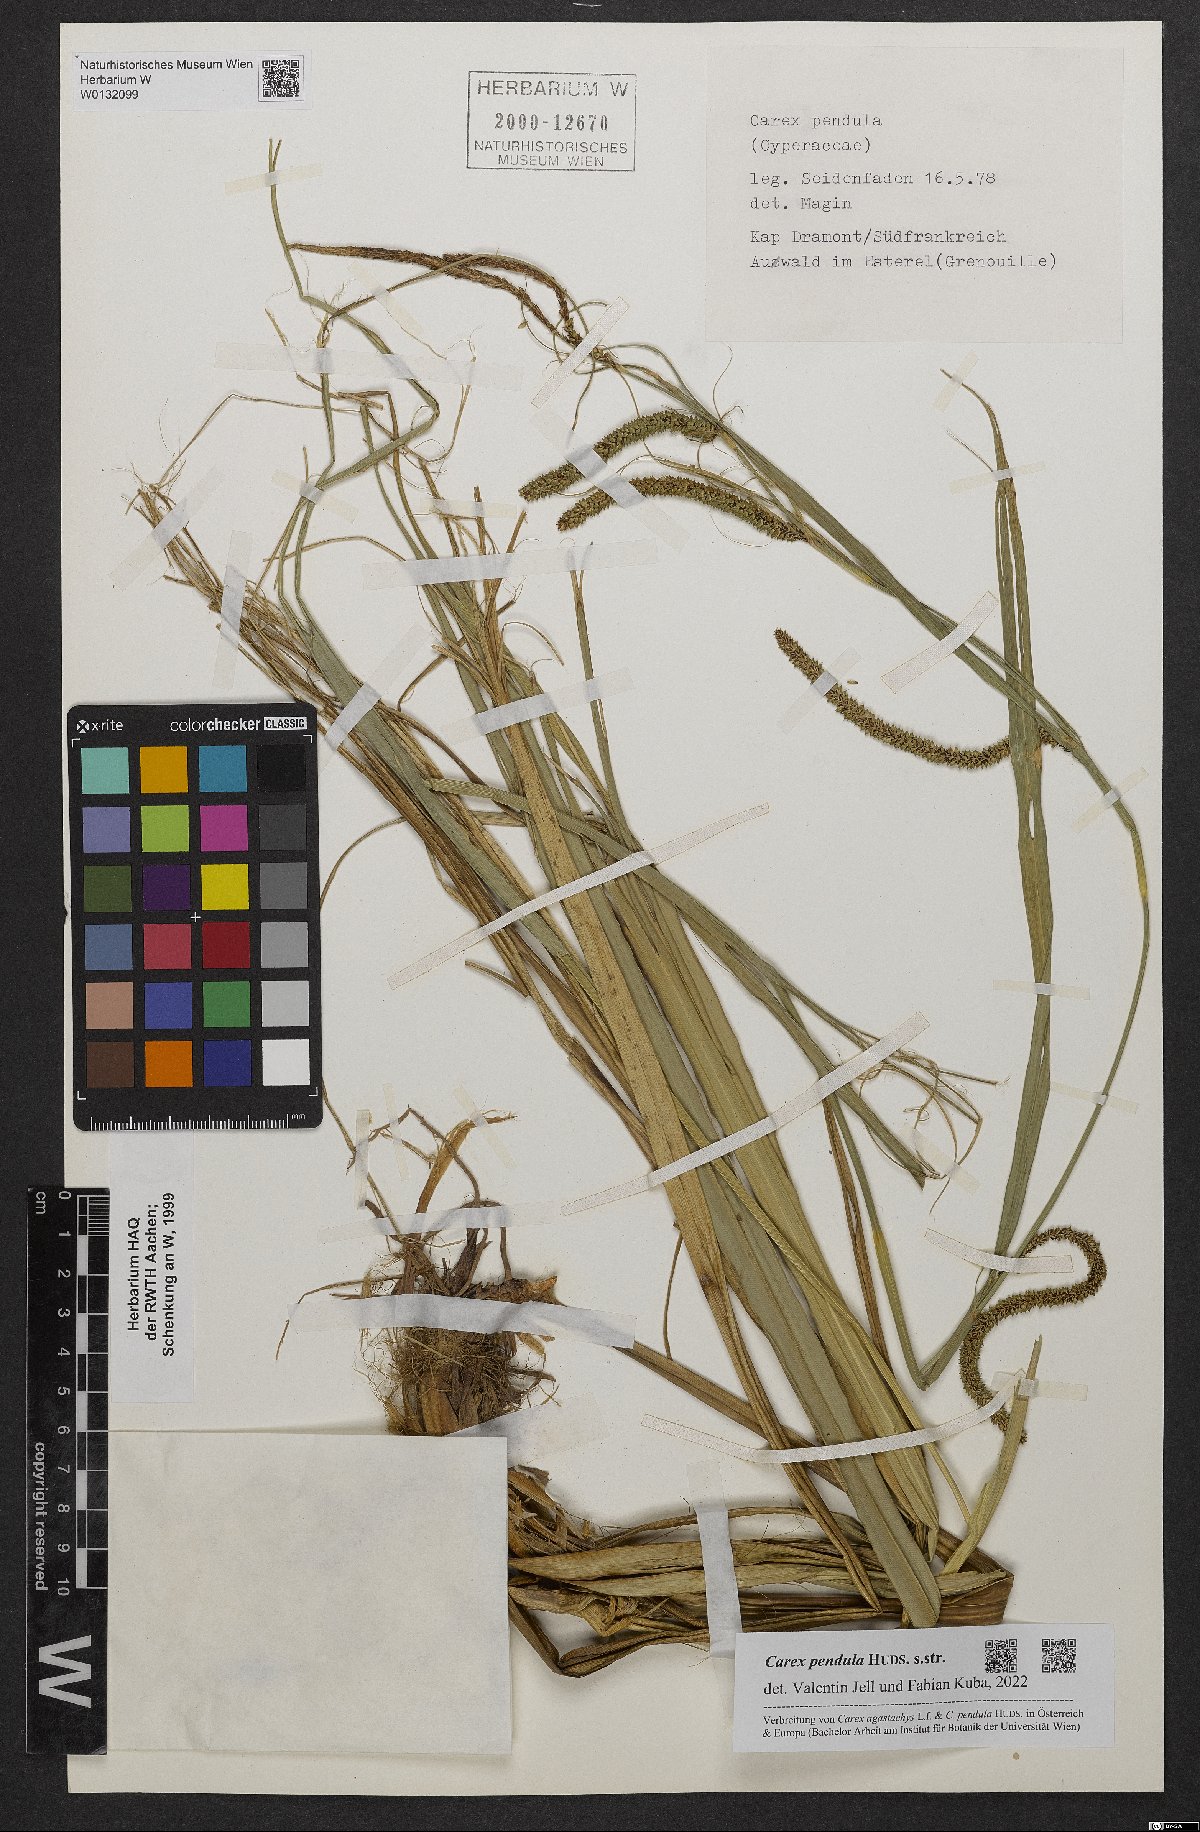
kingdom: Plantae
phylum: Tracheophyta
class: Liliopsida
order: Poales
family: Cyperaceae
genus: Carex
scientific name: Carex pendula
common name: Pendulous sedge
